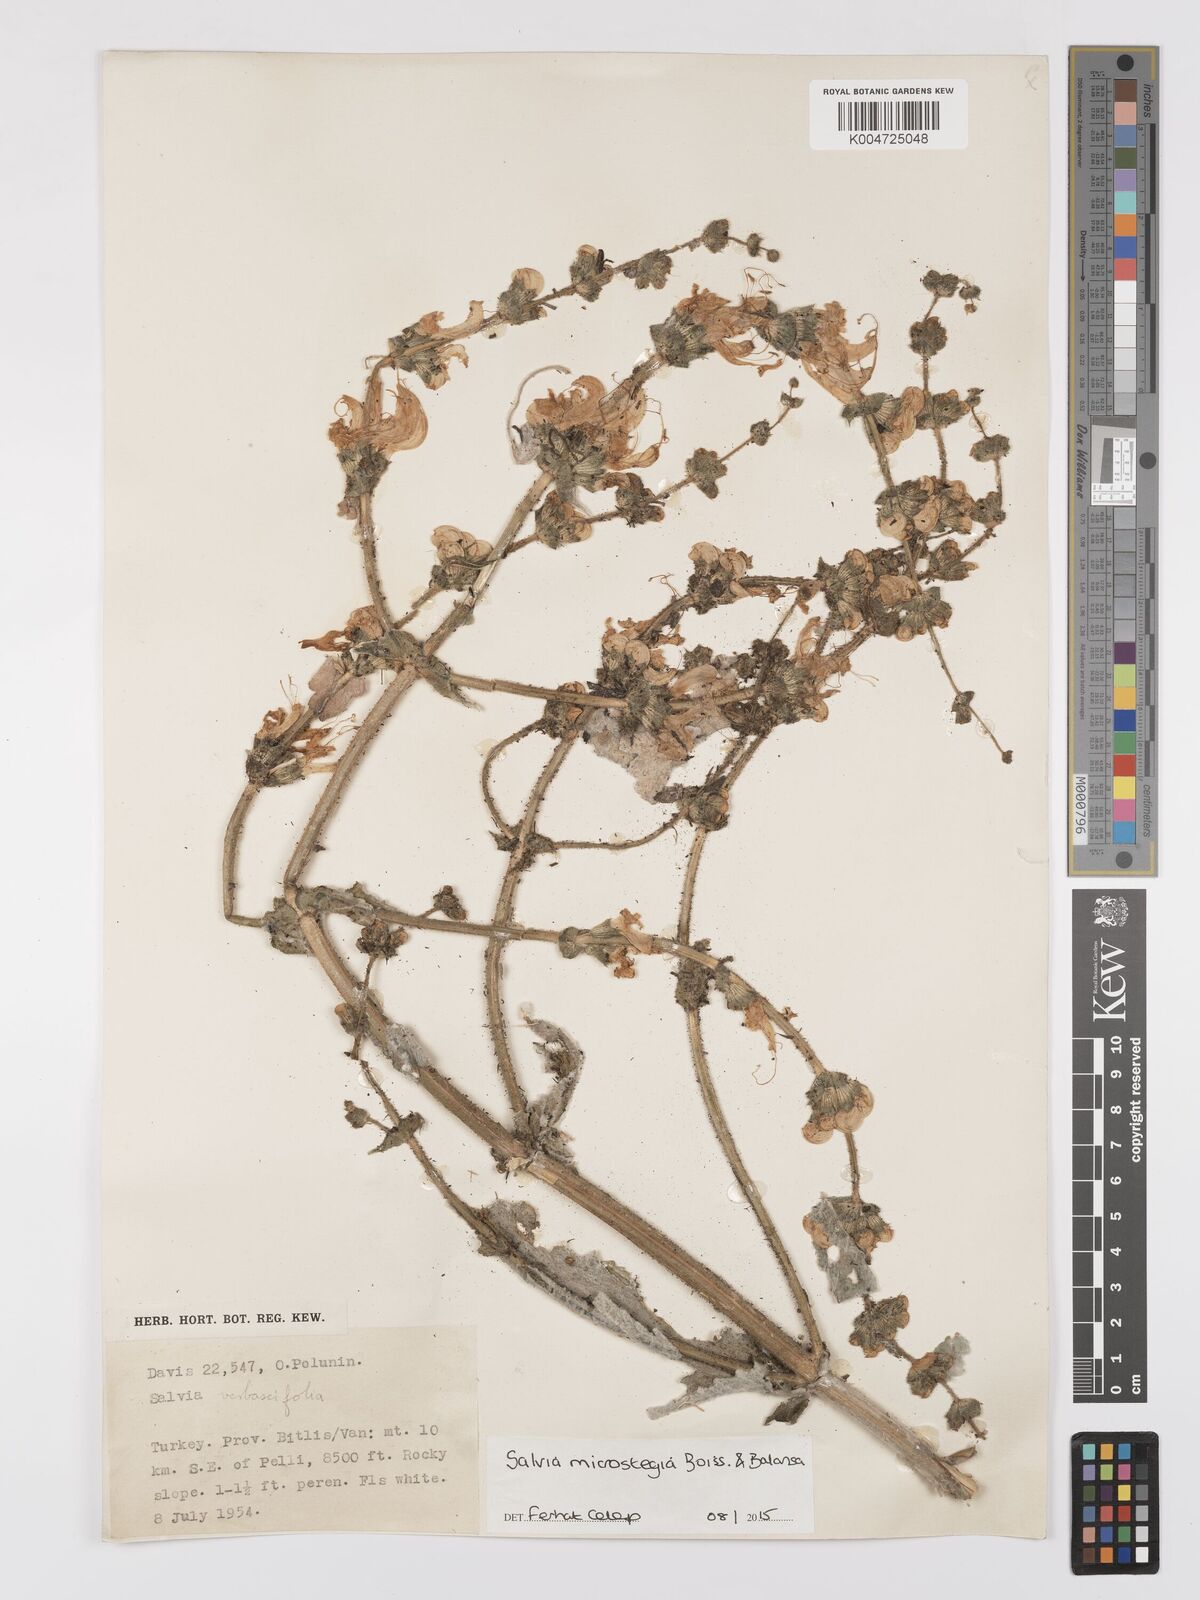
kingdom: Plantae
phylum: Tracheophyta
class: Magnoliopsida
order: Lamiales
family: Lamiaceae
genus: Salvia
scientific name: Salvia microstegia
